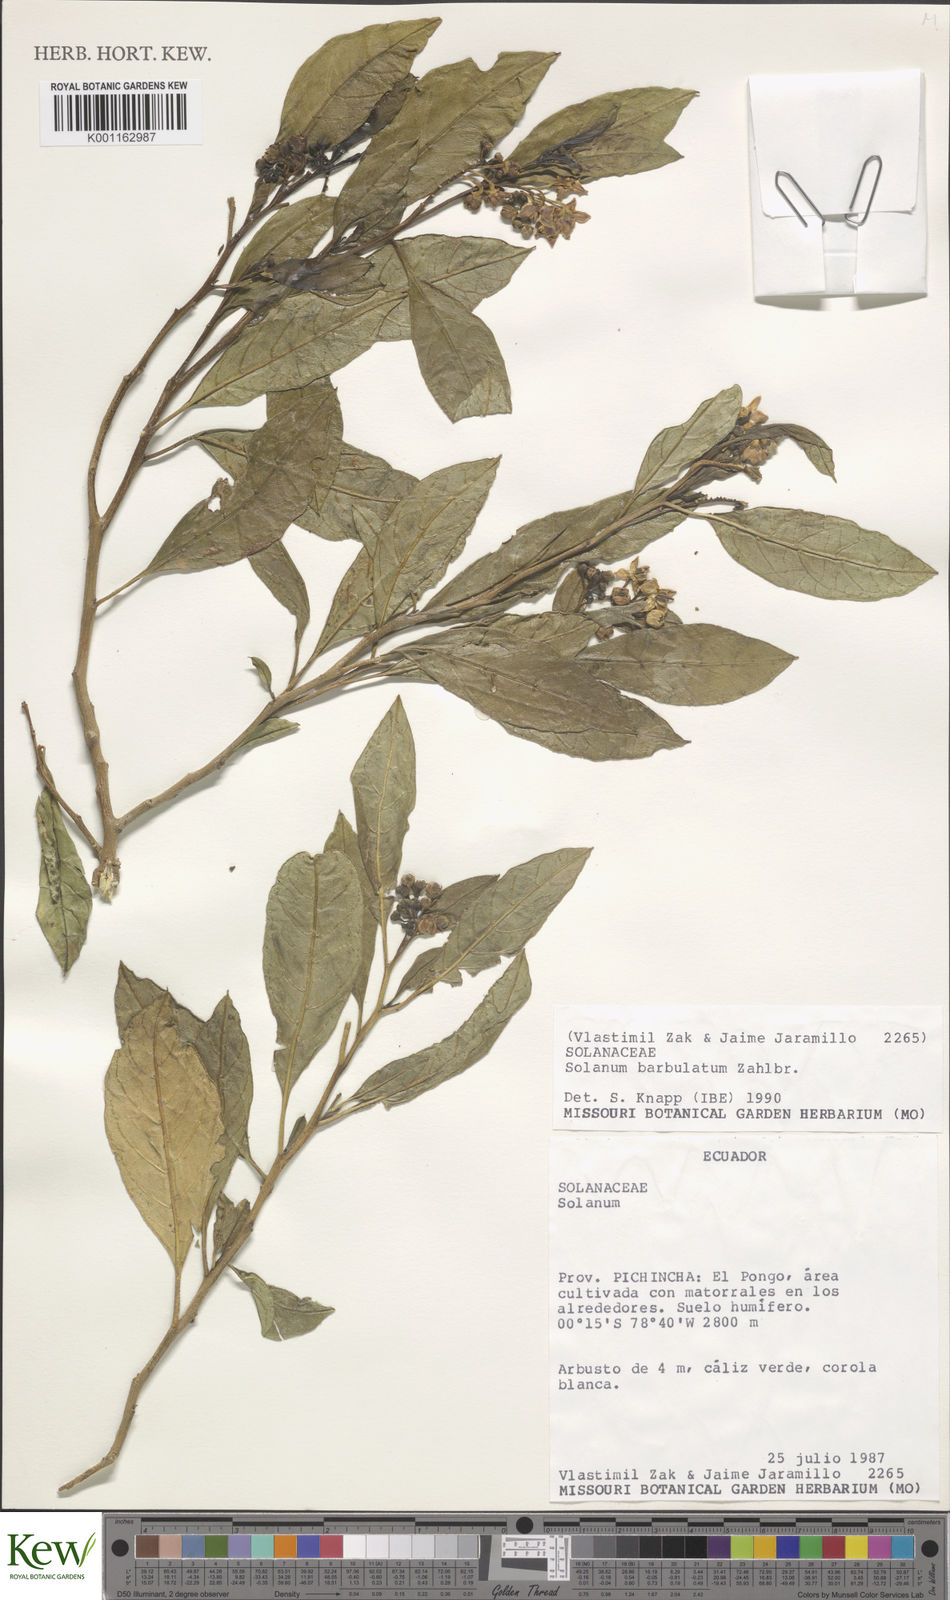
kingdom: Plantae
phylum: Tracheophyta
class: Magnoliopsida
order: Solanales
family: Solanaceae
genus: Solanum
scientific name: Solanum barbulatum
